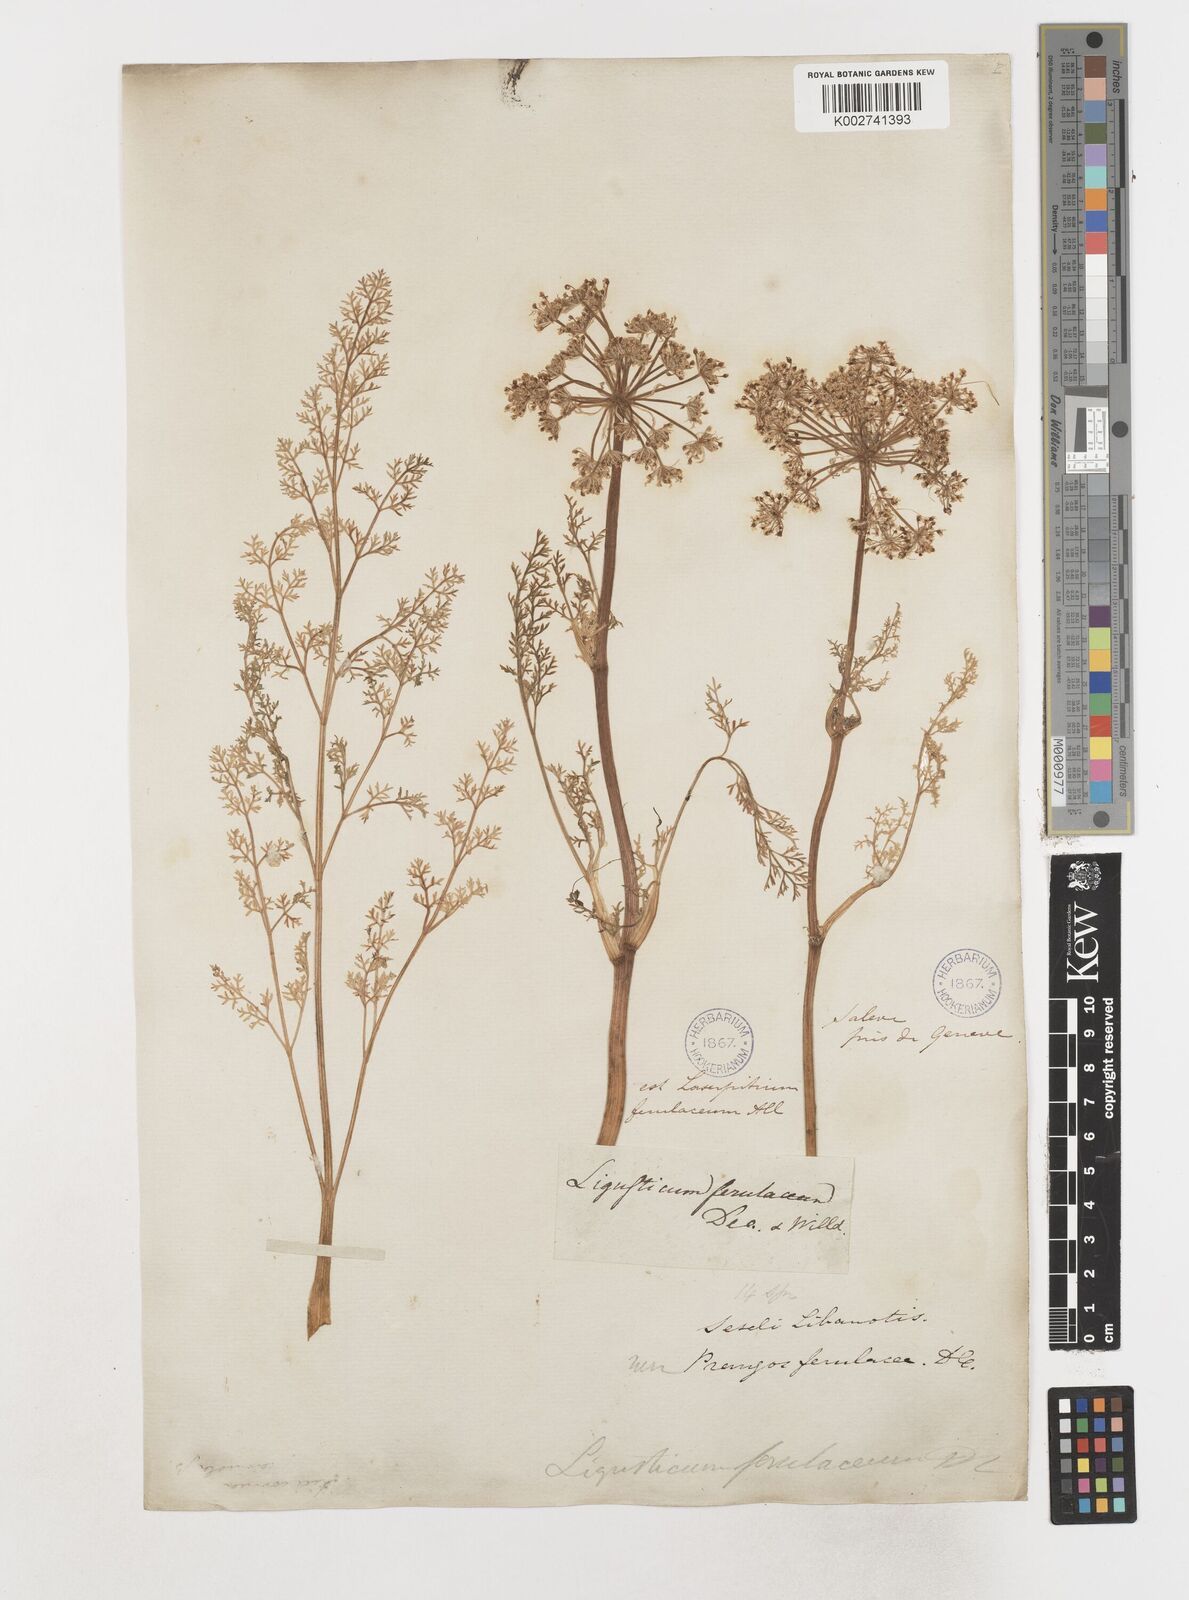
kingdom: Plantae
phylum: Tracheophyta
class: Magnoliopsida
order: Apiales
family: Apiaceae
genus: Coristospermum
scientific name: Coristospermum ferulaceum
